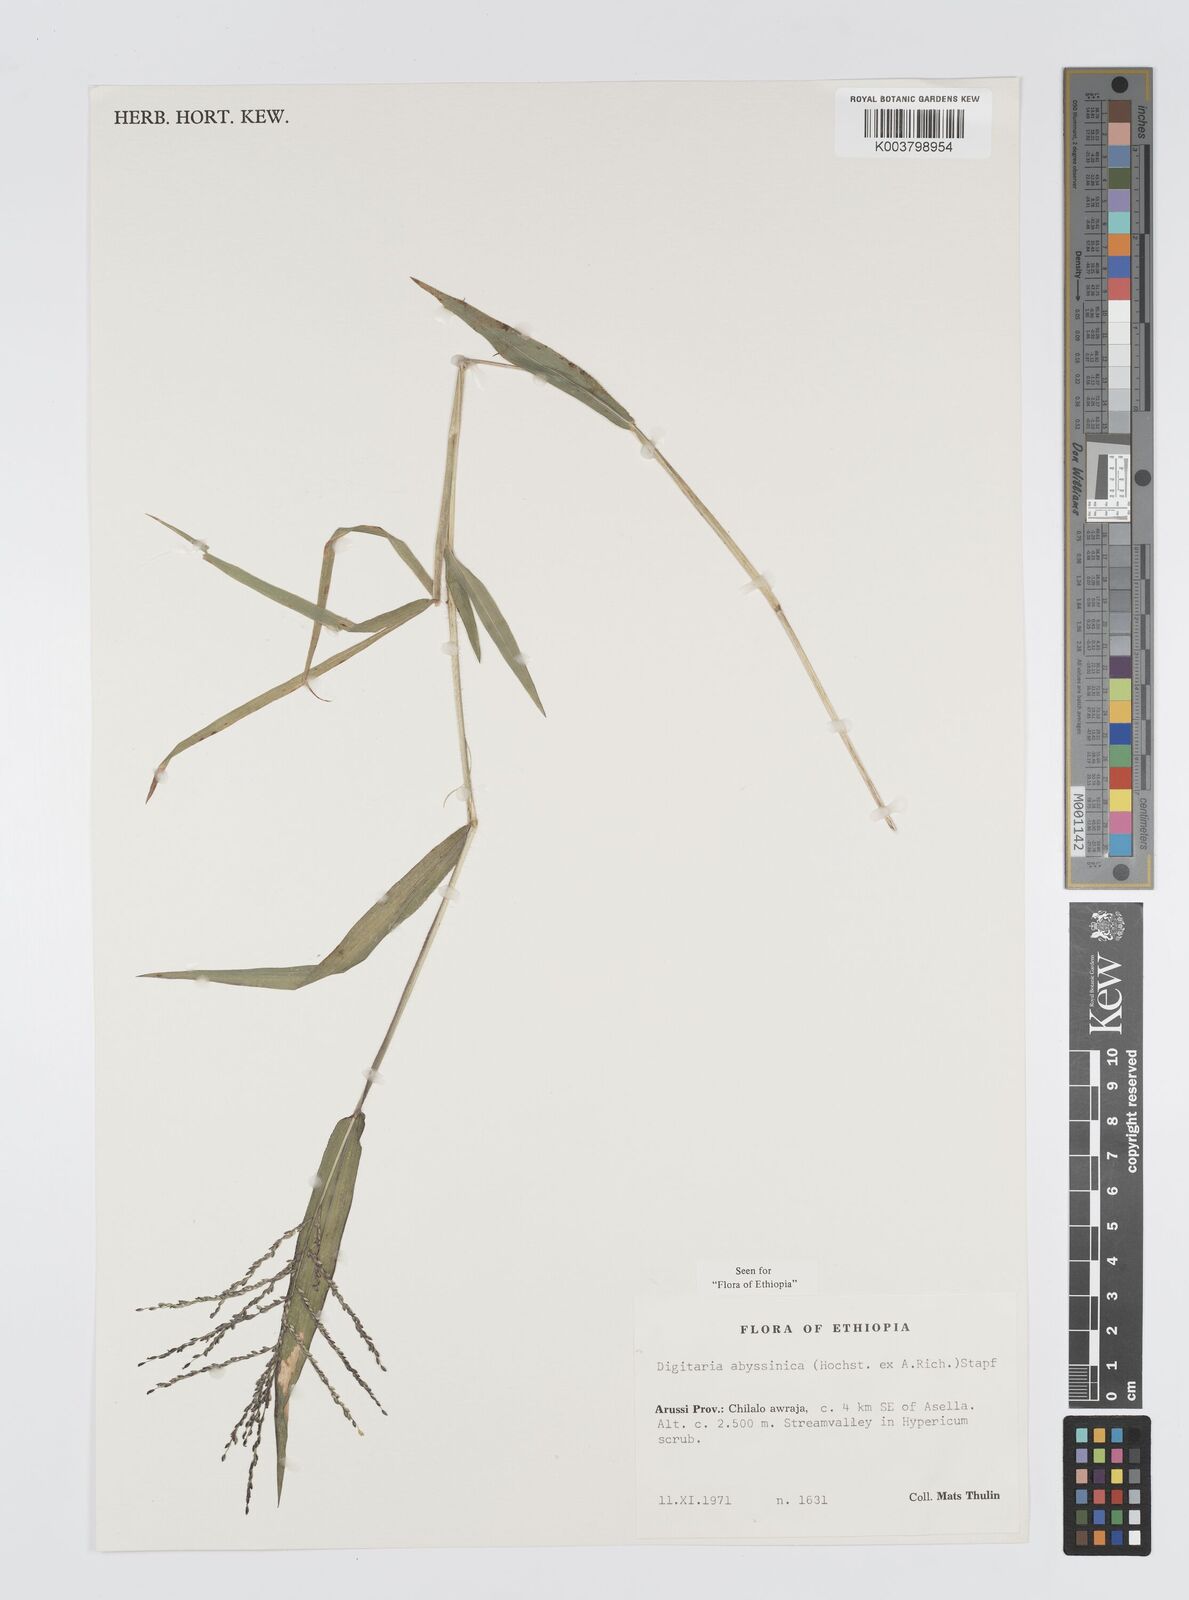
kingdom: Plantae
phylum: Tracheophyta
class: Liliopsida
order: Poales
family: Poaceae
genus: Digitaria
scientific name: Digitaria abyssinica
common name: African couchgrass
